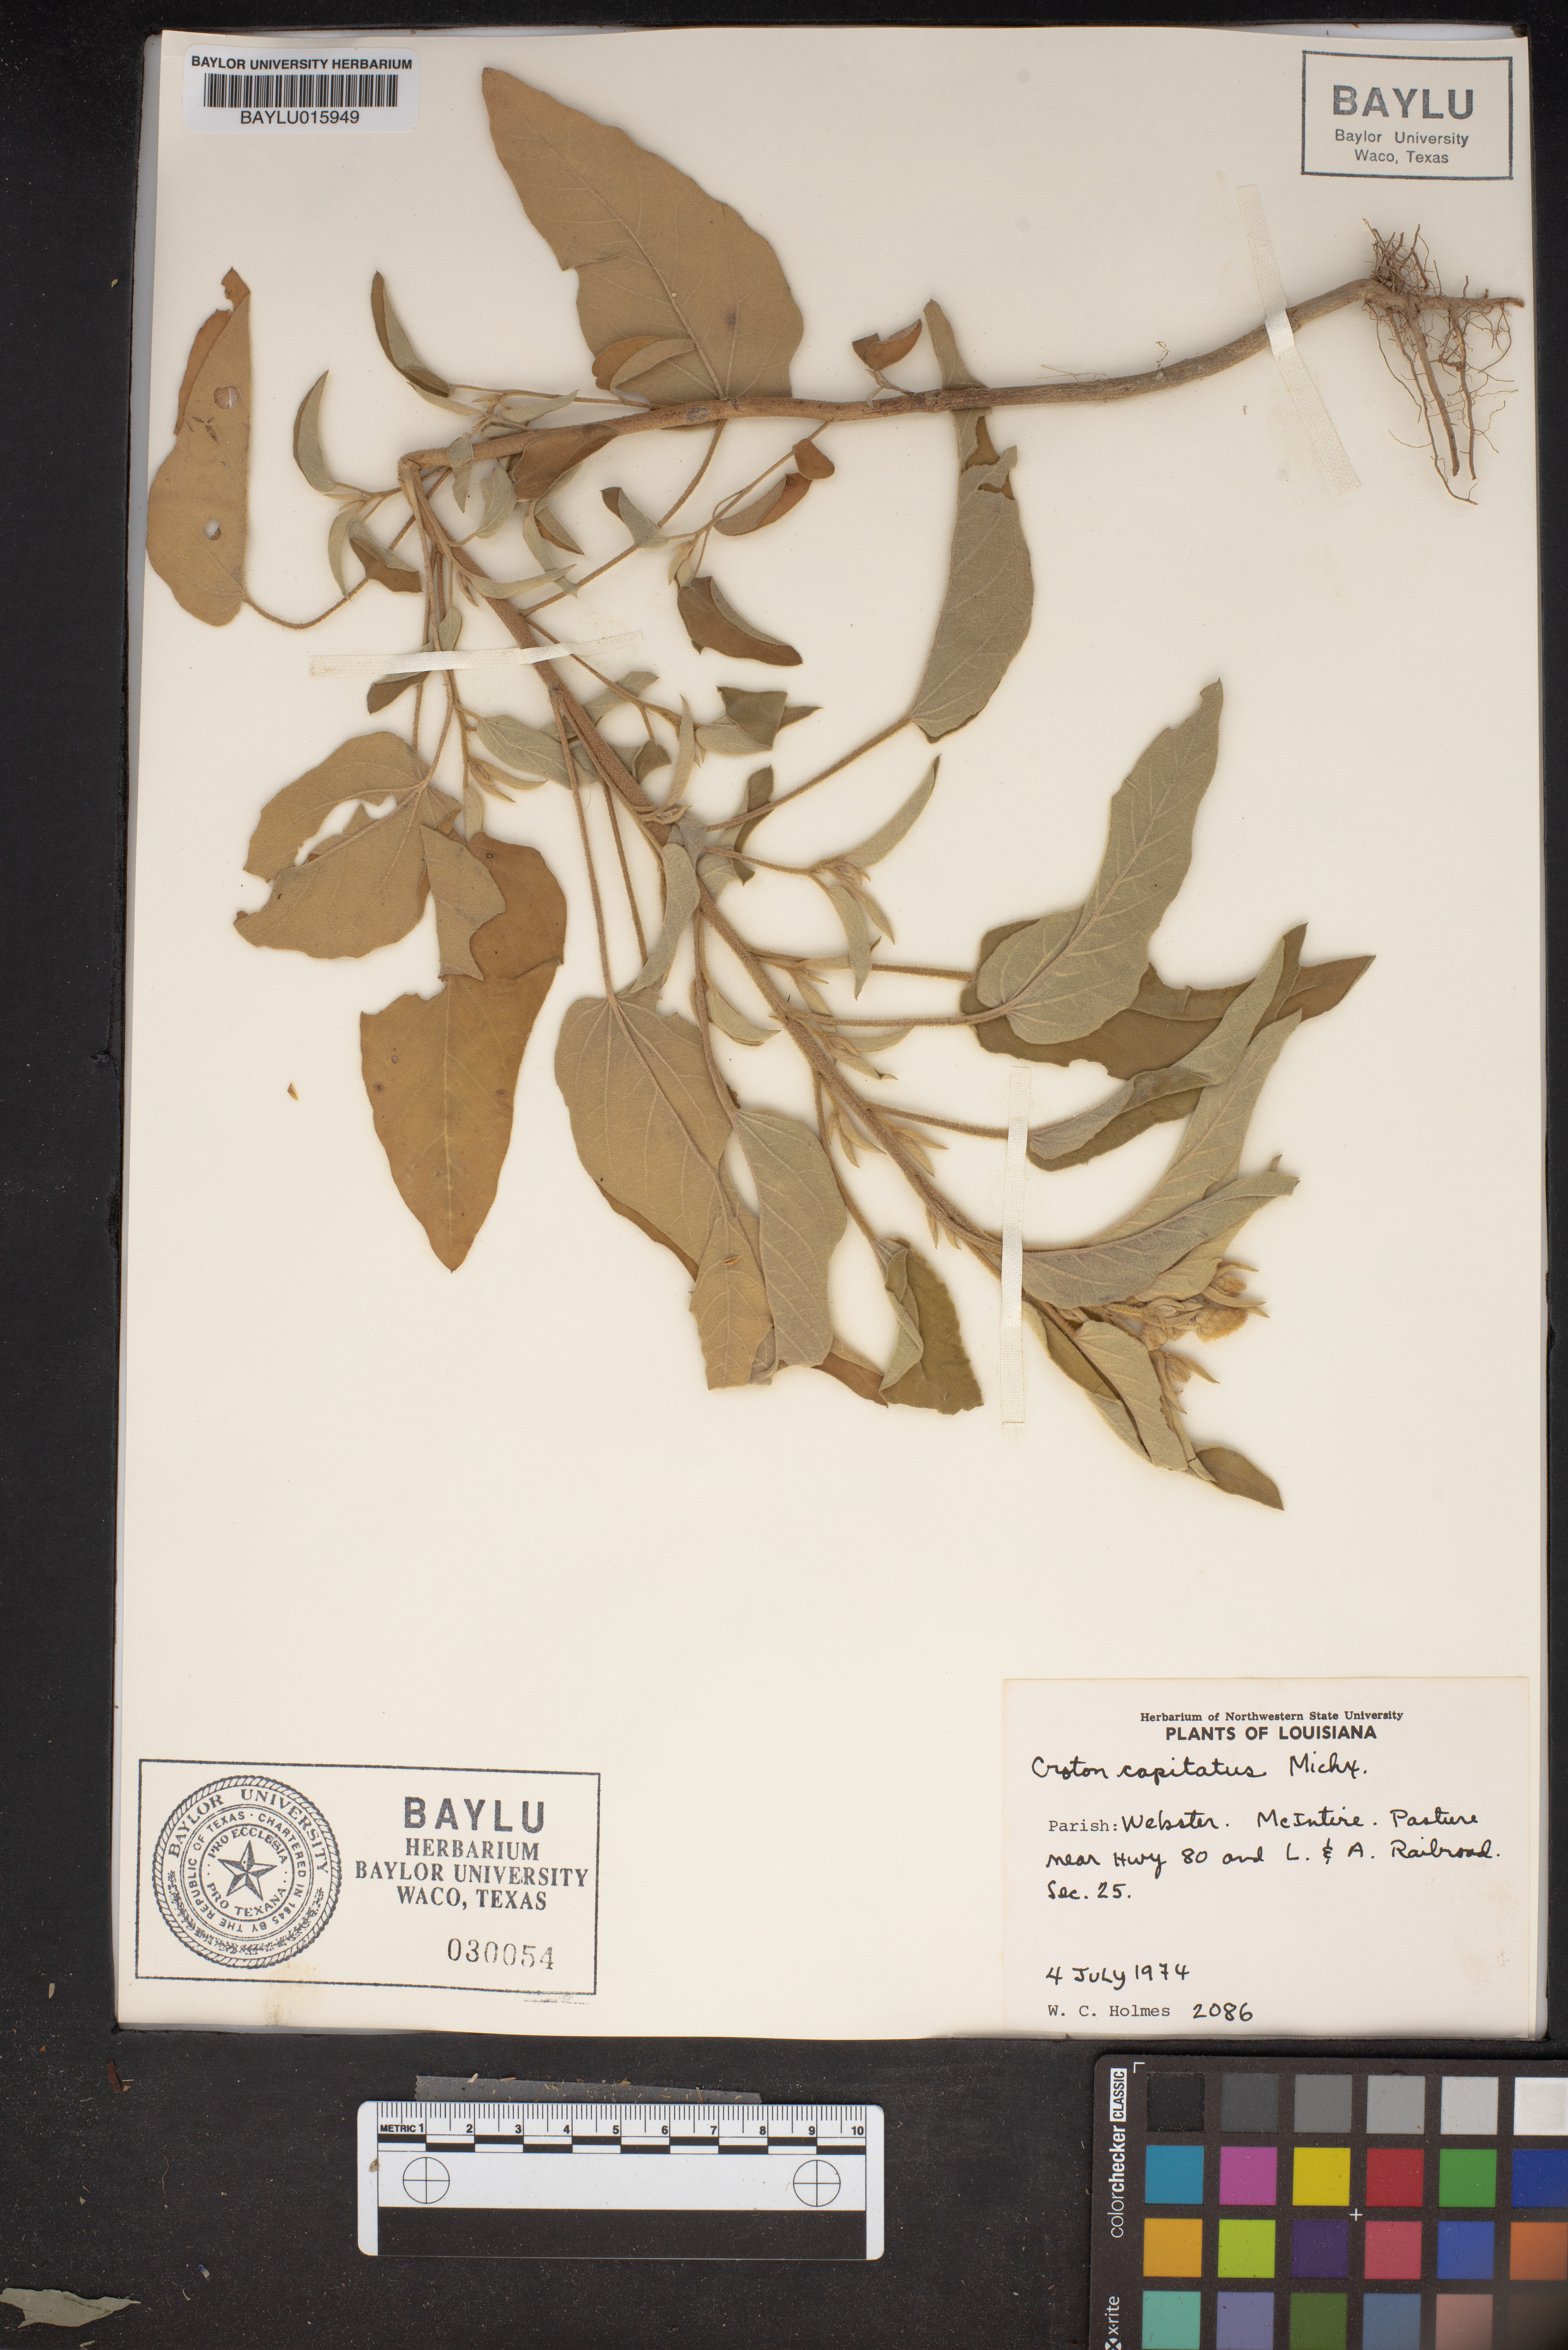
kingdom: Plantae
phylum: Tracheophyta
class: Magnoliopsida
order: Malpighiales
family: Euphorbiaceae
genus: Croton
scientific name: Croton capitatus
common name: Woolly croton
